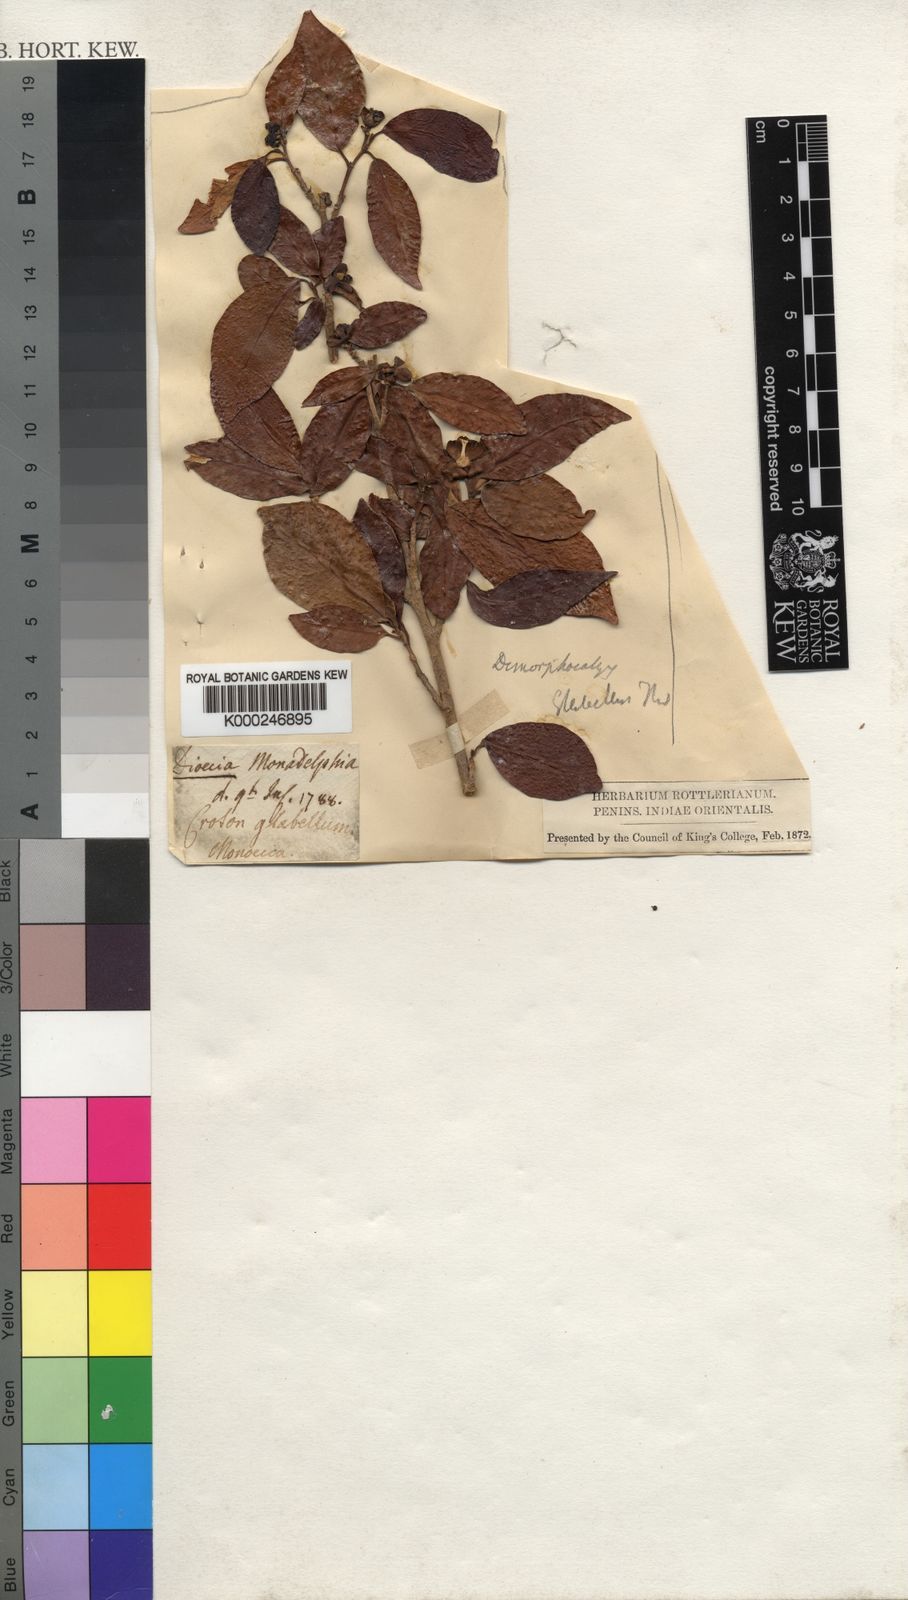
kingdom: Plantae
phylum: Tracheophyta
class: Magnoliopsida
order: Malpighiales
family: Euphorbiaceae
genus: Tritaxis
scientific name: Tritaxis glabella
